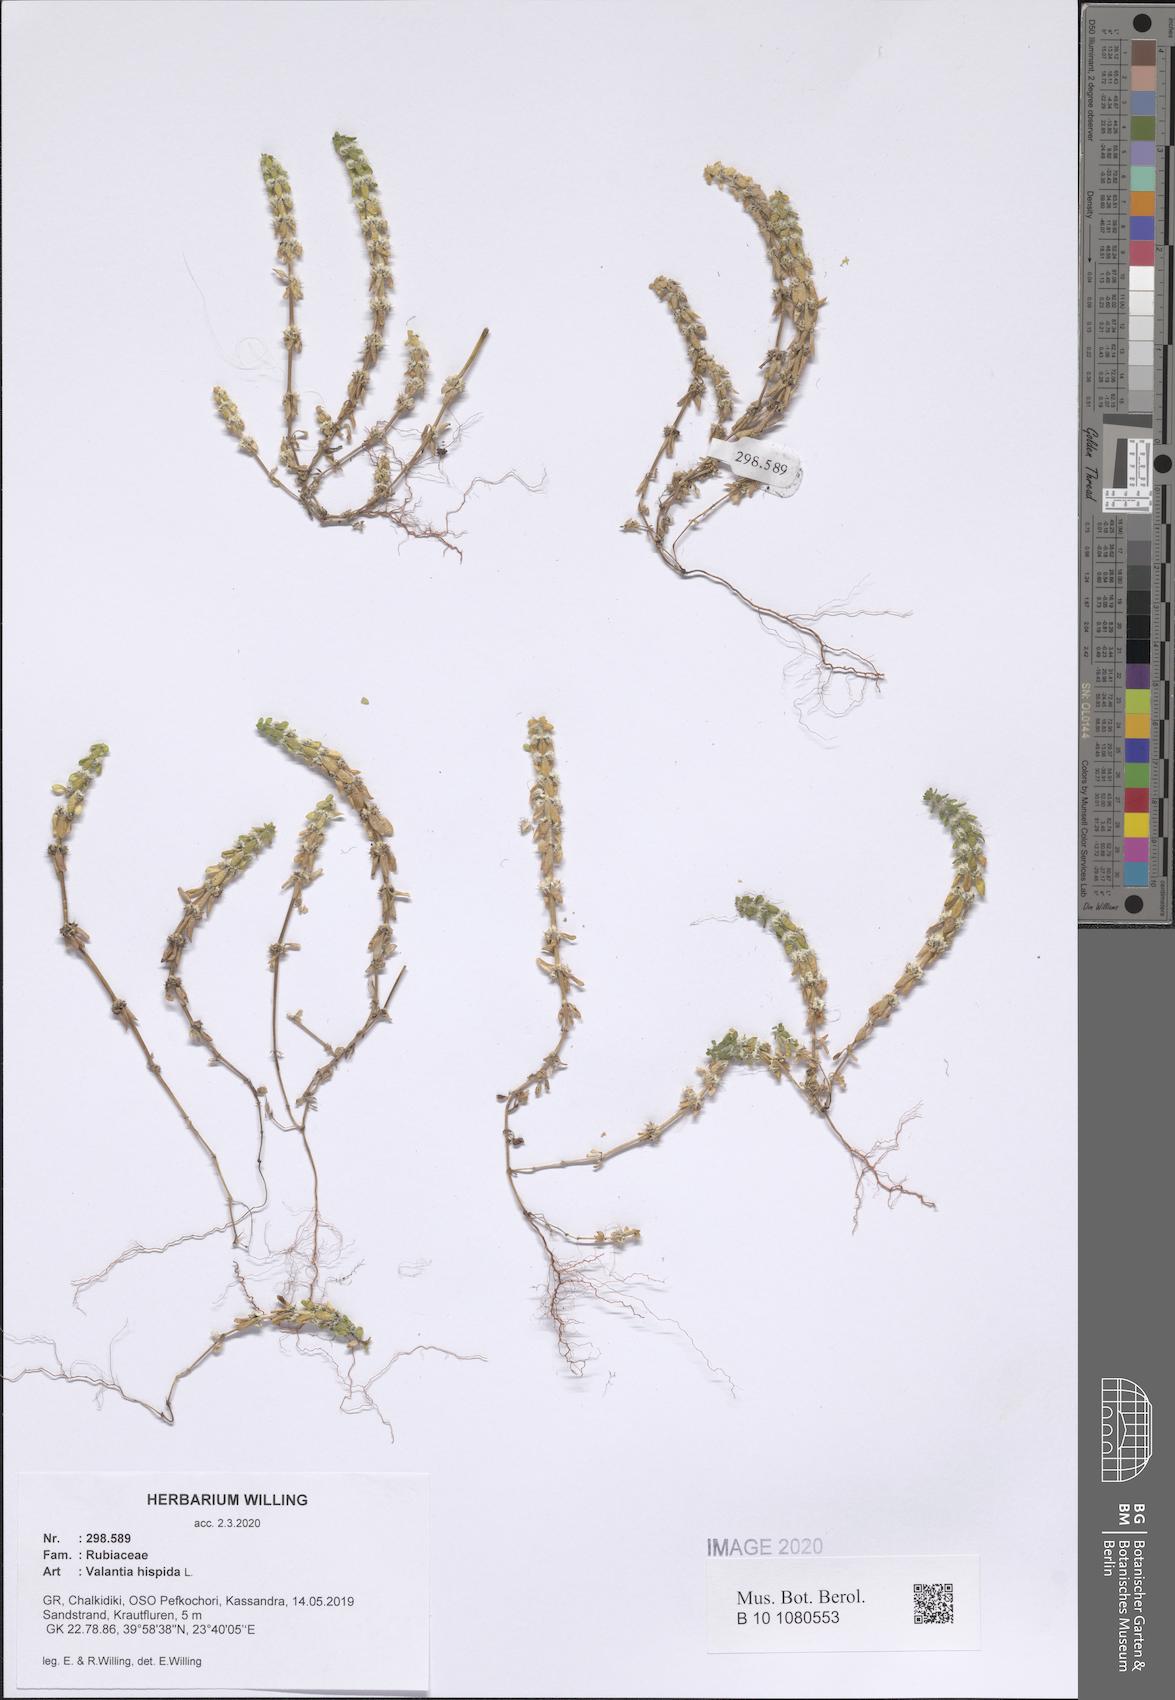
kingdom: Plantae
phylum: Tracheophyta
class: Magnoliopsida
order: Gentianales
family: Rubiaceae
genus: Valantia
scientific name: Valantia hispida
